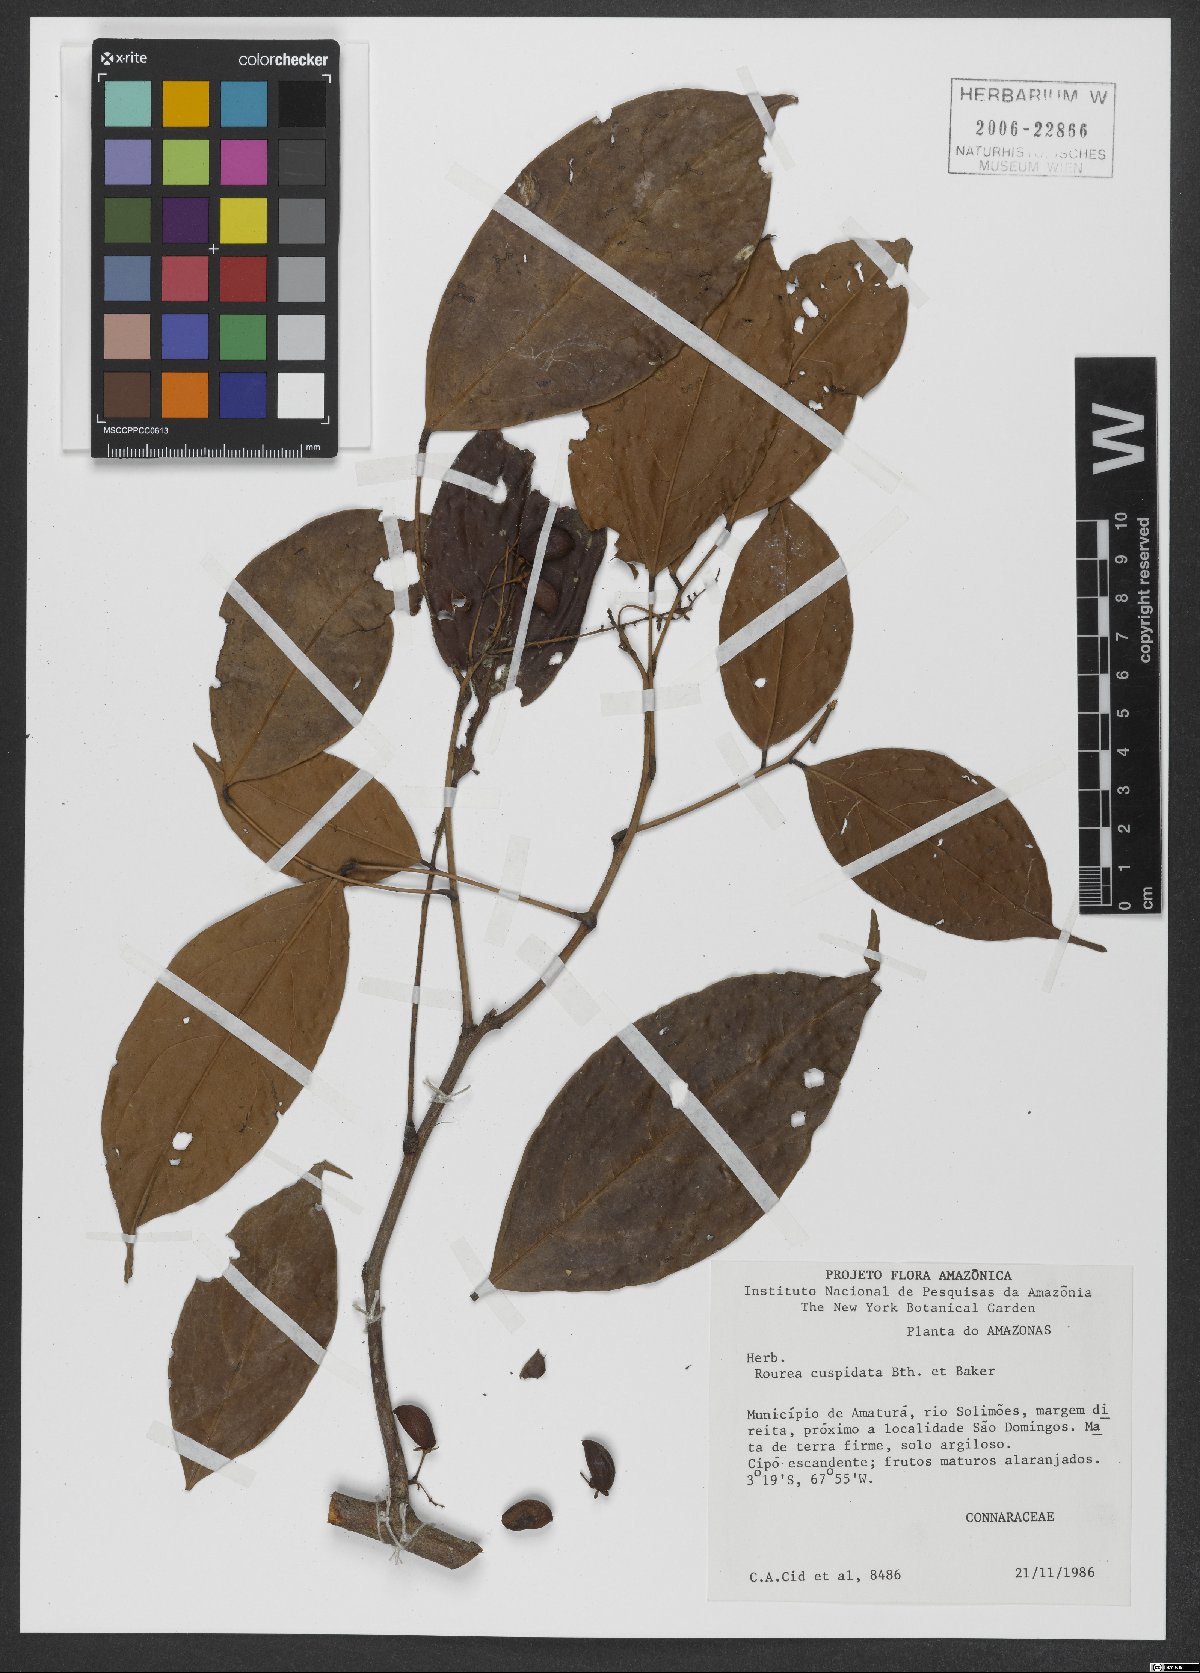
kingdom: Plantae
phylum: Tracheophyta
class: Magnoliopsida
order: Oxalidales
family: Connaraceae
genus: Rourea
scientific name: Rourea cuspidata
